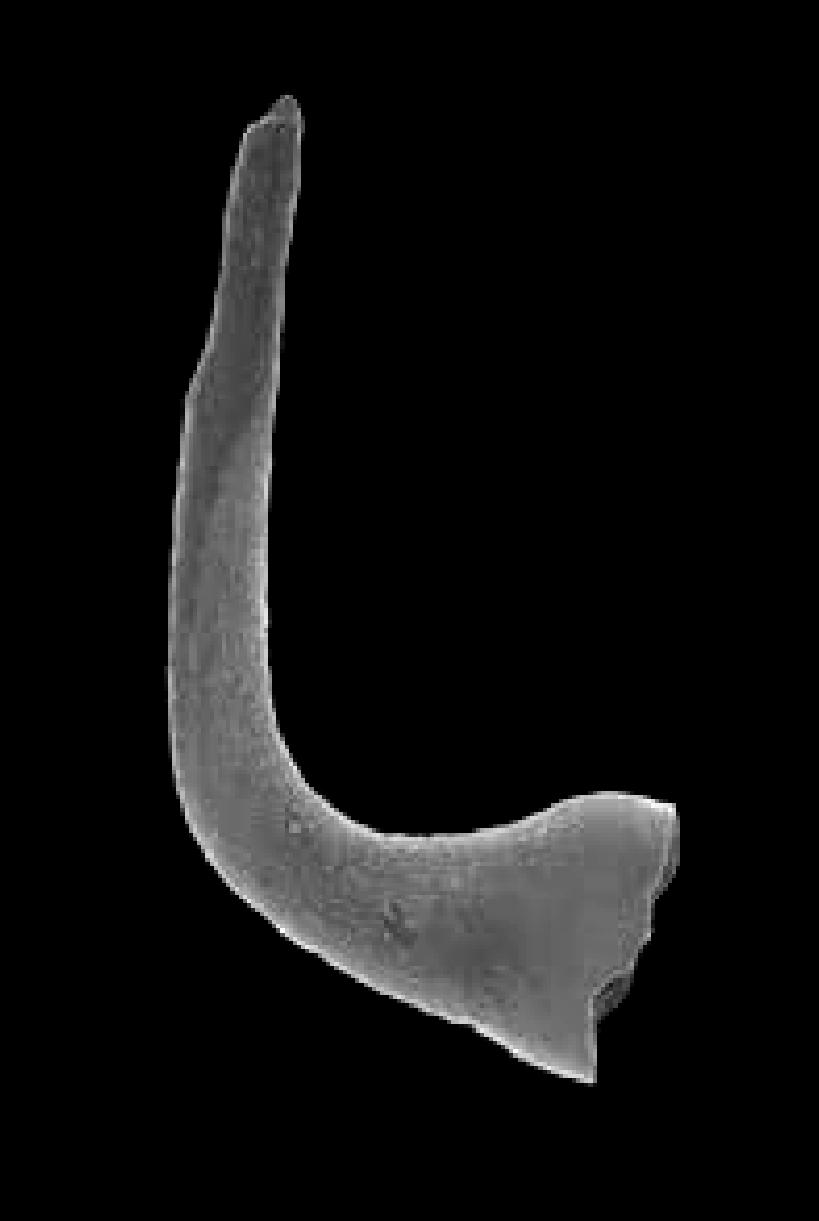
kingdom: Animalia
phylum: Chordata
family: Oneotodontidae
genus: Semiacontiodus
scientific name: Semiacontiodus
